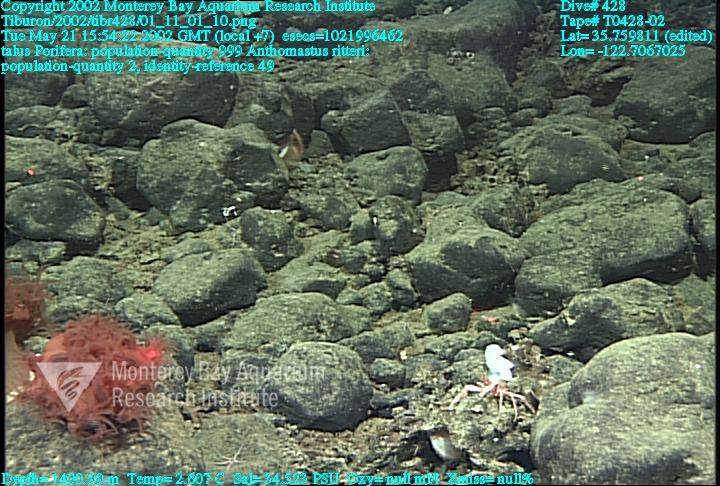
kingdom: Animalia
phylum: Porifera
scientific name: Porifera
